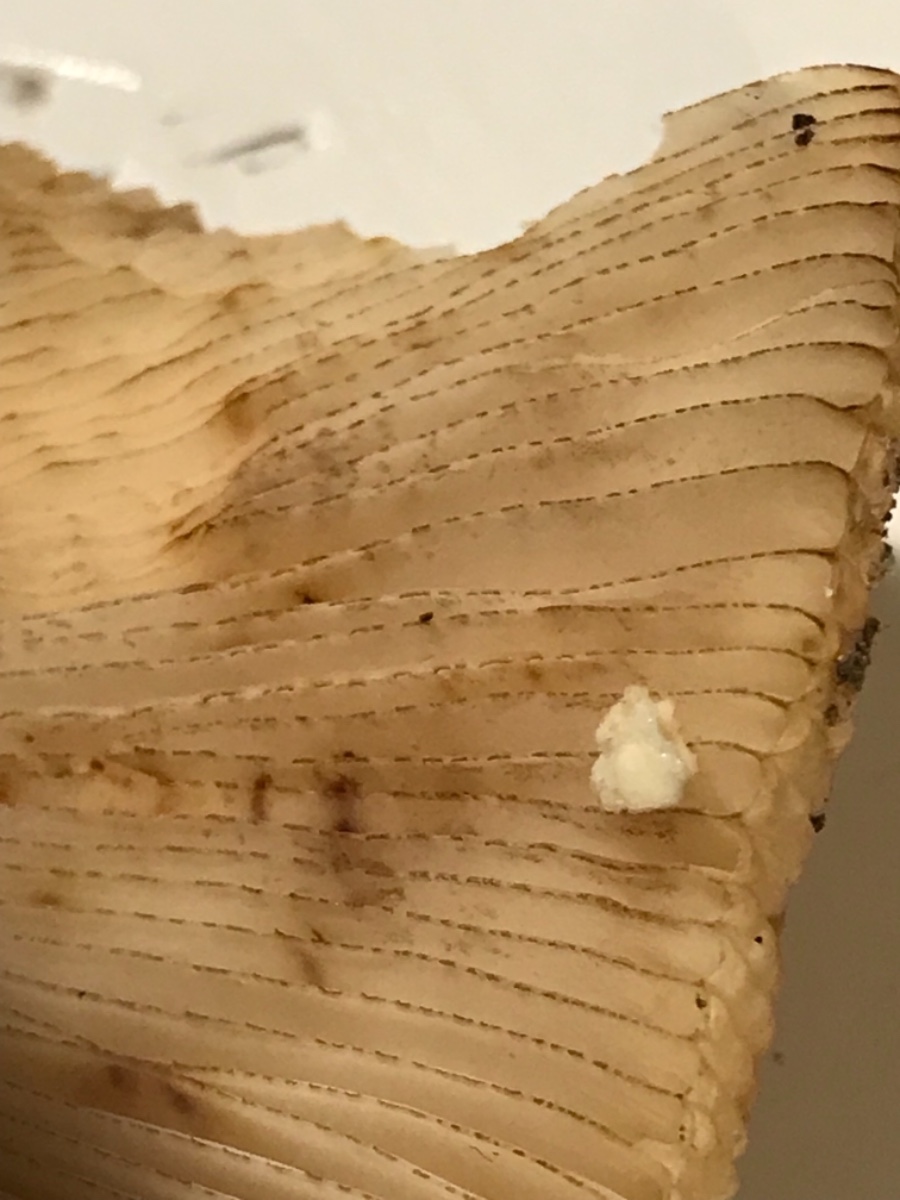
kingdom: Fungi
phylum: Basidiomycota
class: Agaricomycetes
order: Russulales
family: Russulaceae
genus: Russula
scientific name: Russula illota
